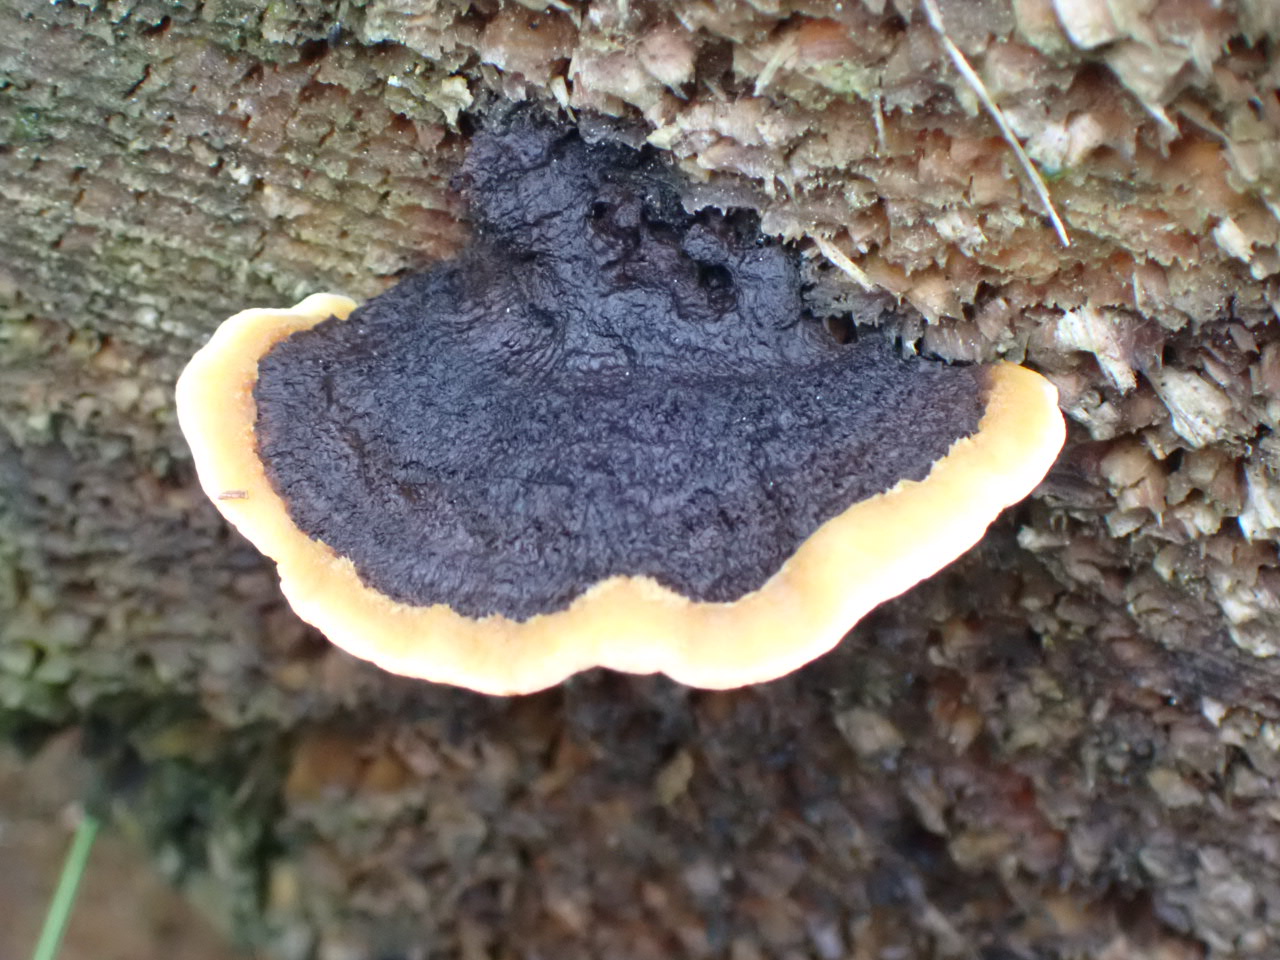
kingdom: Fungi
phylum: Basidiomycota
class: Agaricomycetes
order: Gloeophyllales
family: Gloeophyllaceae
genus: Gloeophyllum
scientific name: Gloeophyllum sepiarium
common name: fyrre-korkhat
